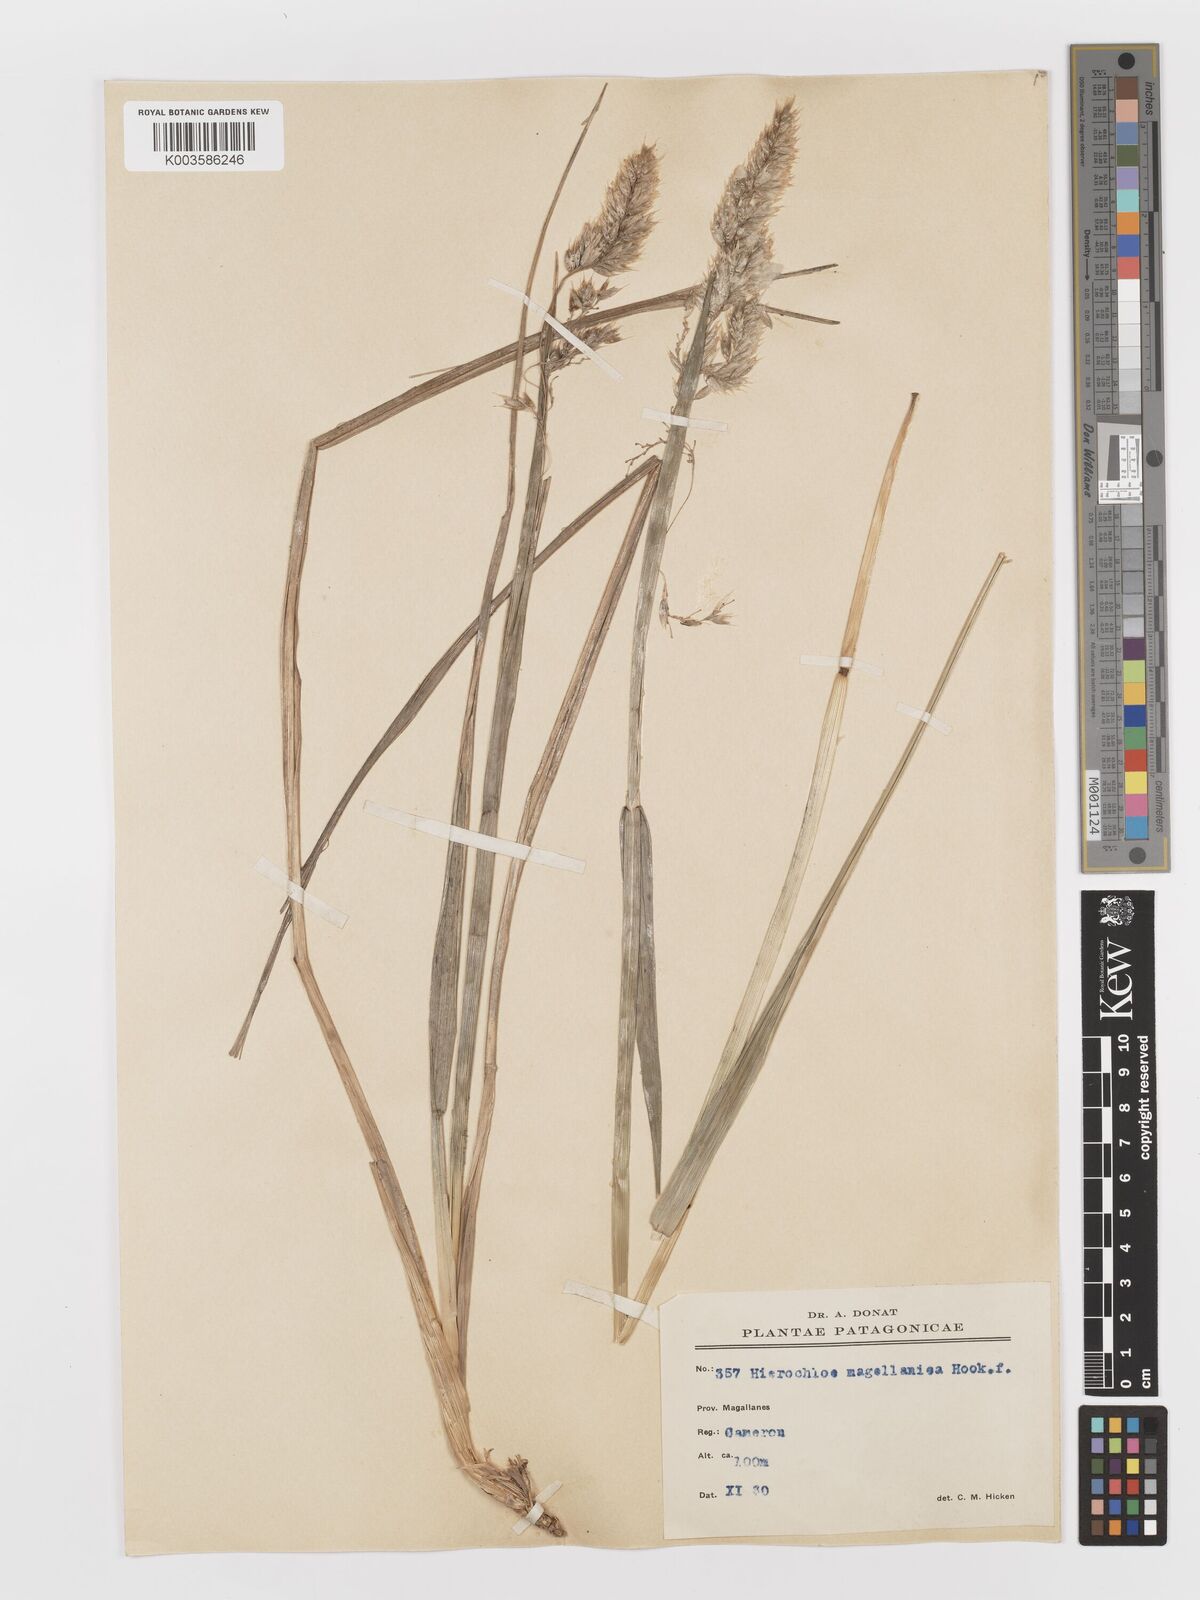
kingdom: Plantae
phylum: Tracheophyta
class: Liliopsida
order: Poales
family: Poaceae
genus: Anthoxanthum
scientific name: Anthoxanthum redolens
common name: Sweet holy grass
